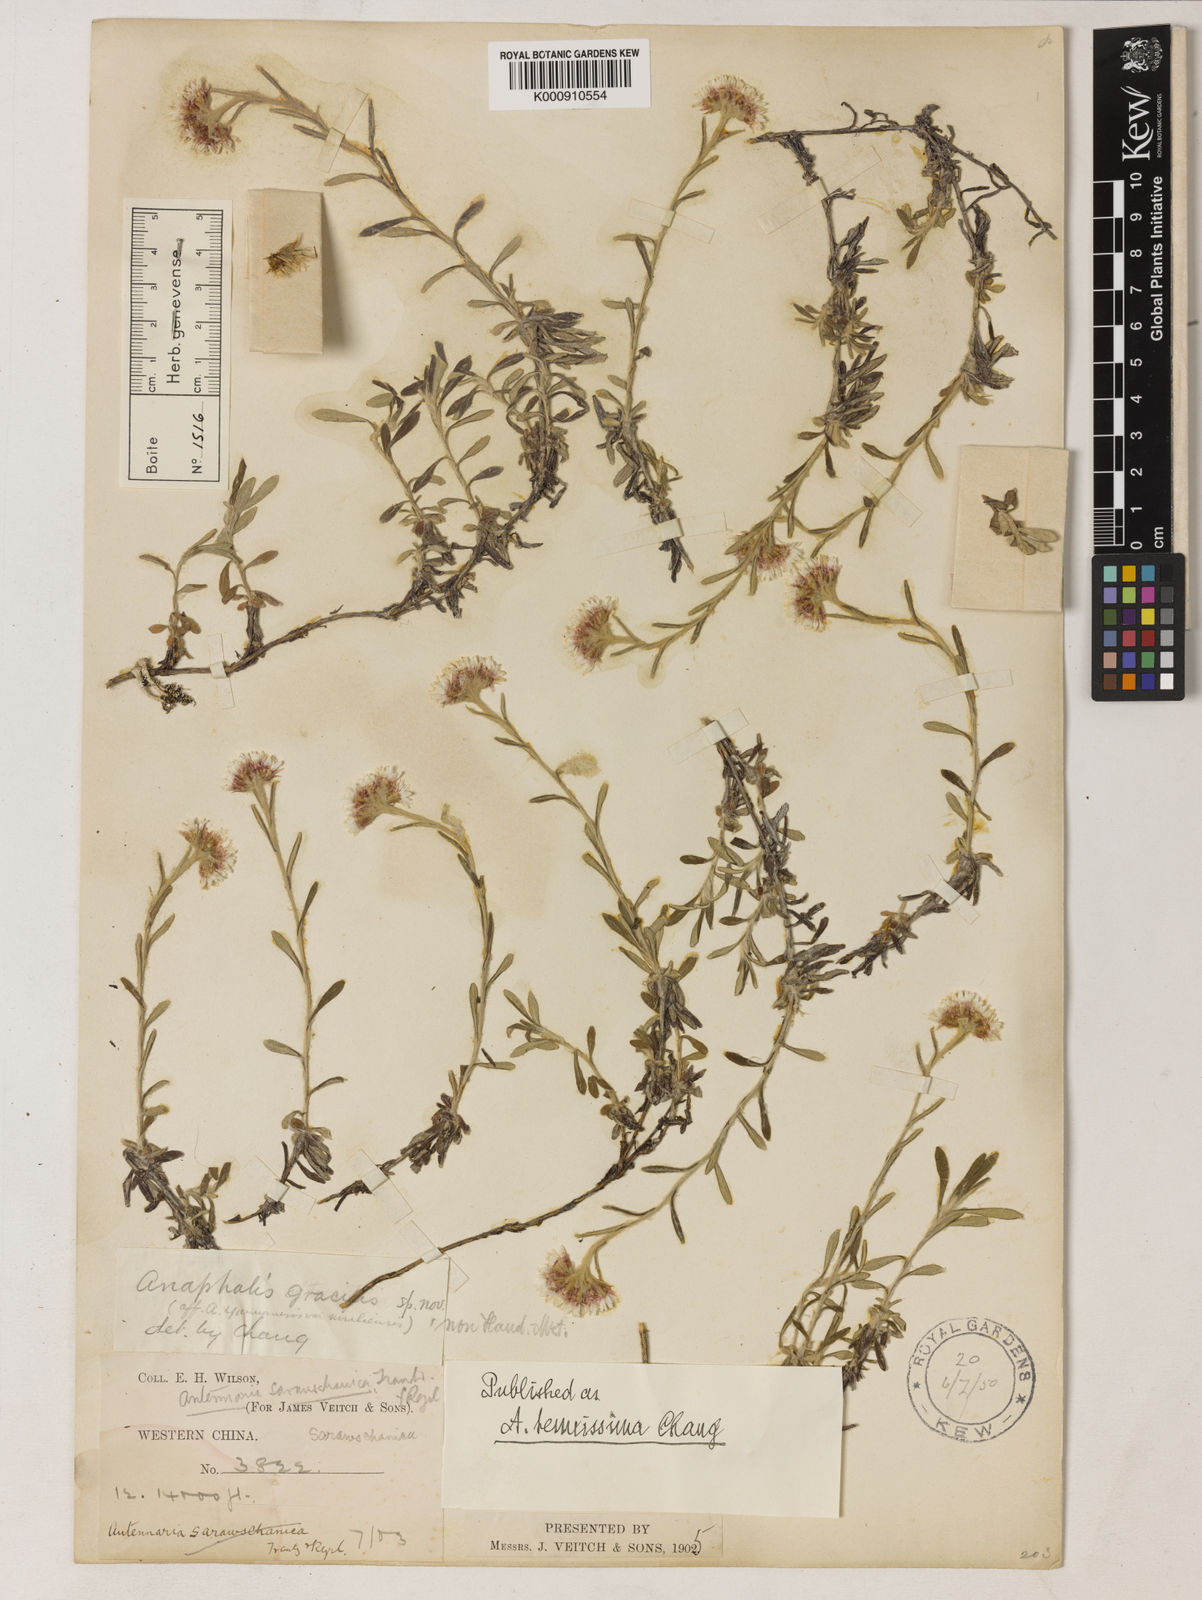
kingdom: Plantae
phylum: Tracheophyta
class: Magnoliopsida
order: Asterales
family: Asteraceae
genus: Anaphalis
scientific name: Anaphalis sarawschanica
